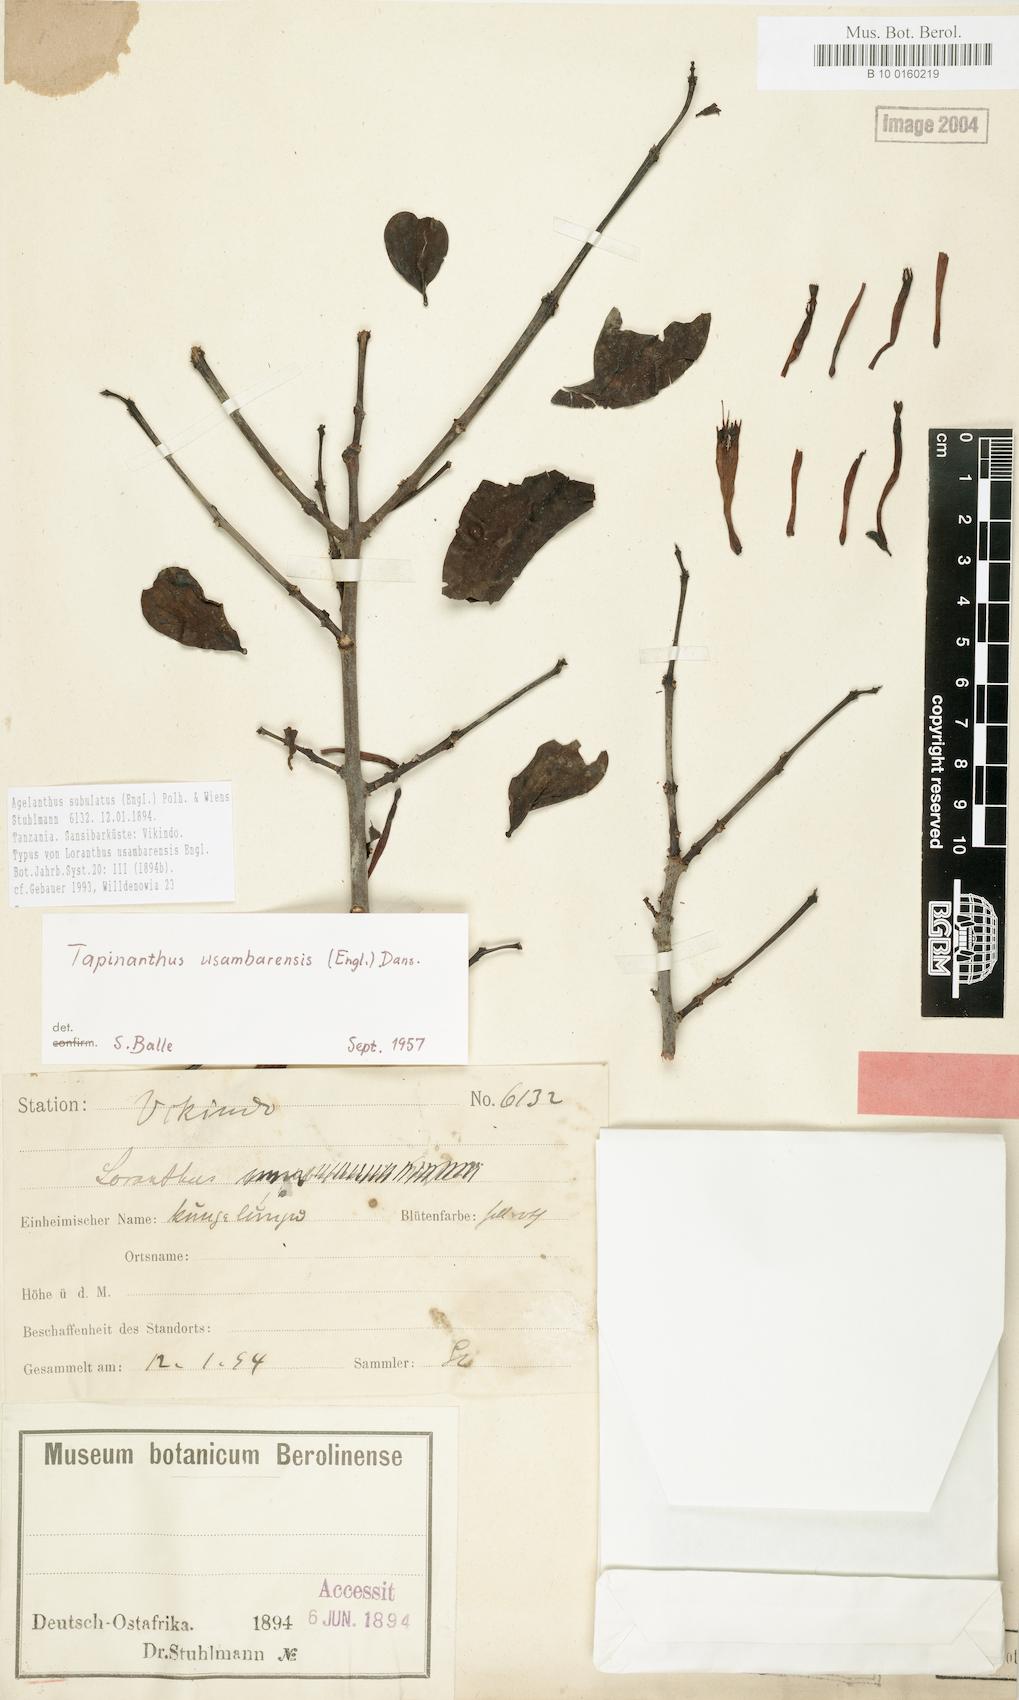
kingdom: Plantae
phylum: Tracheophyta
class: Magnoliopsida
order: Santalales
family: Loranthaceae
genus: Agelanthus
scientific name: Agelanthus subulatus
